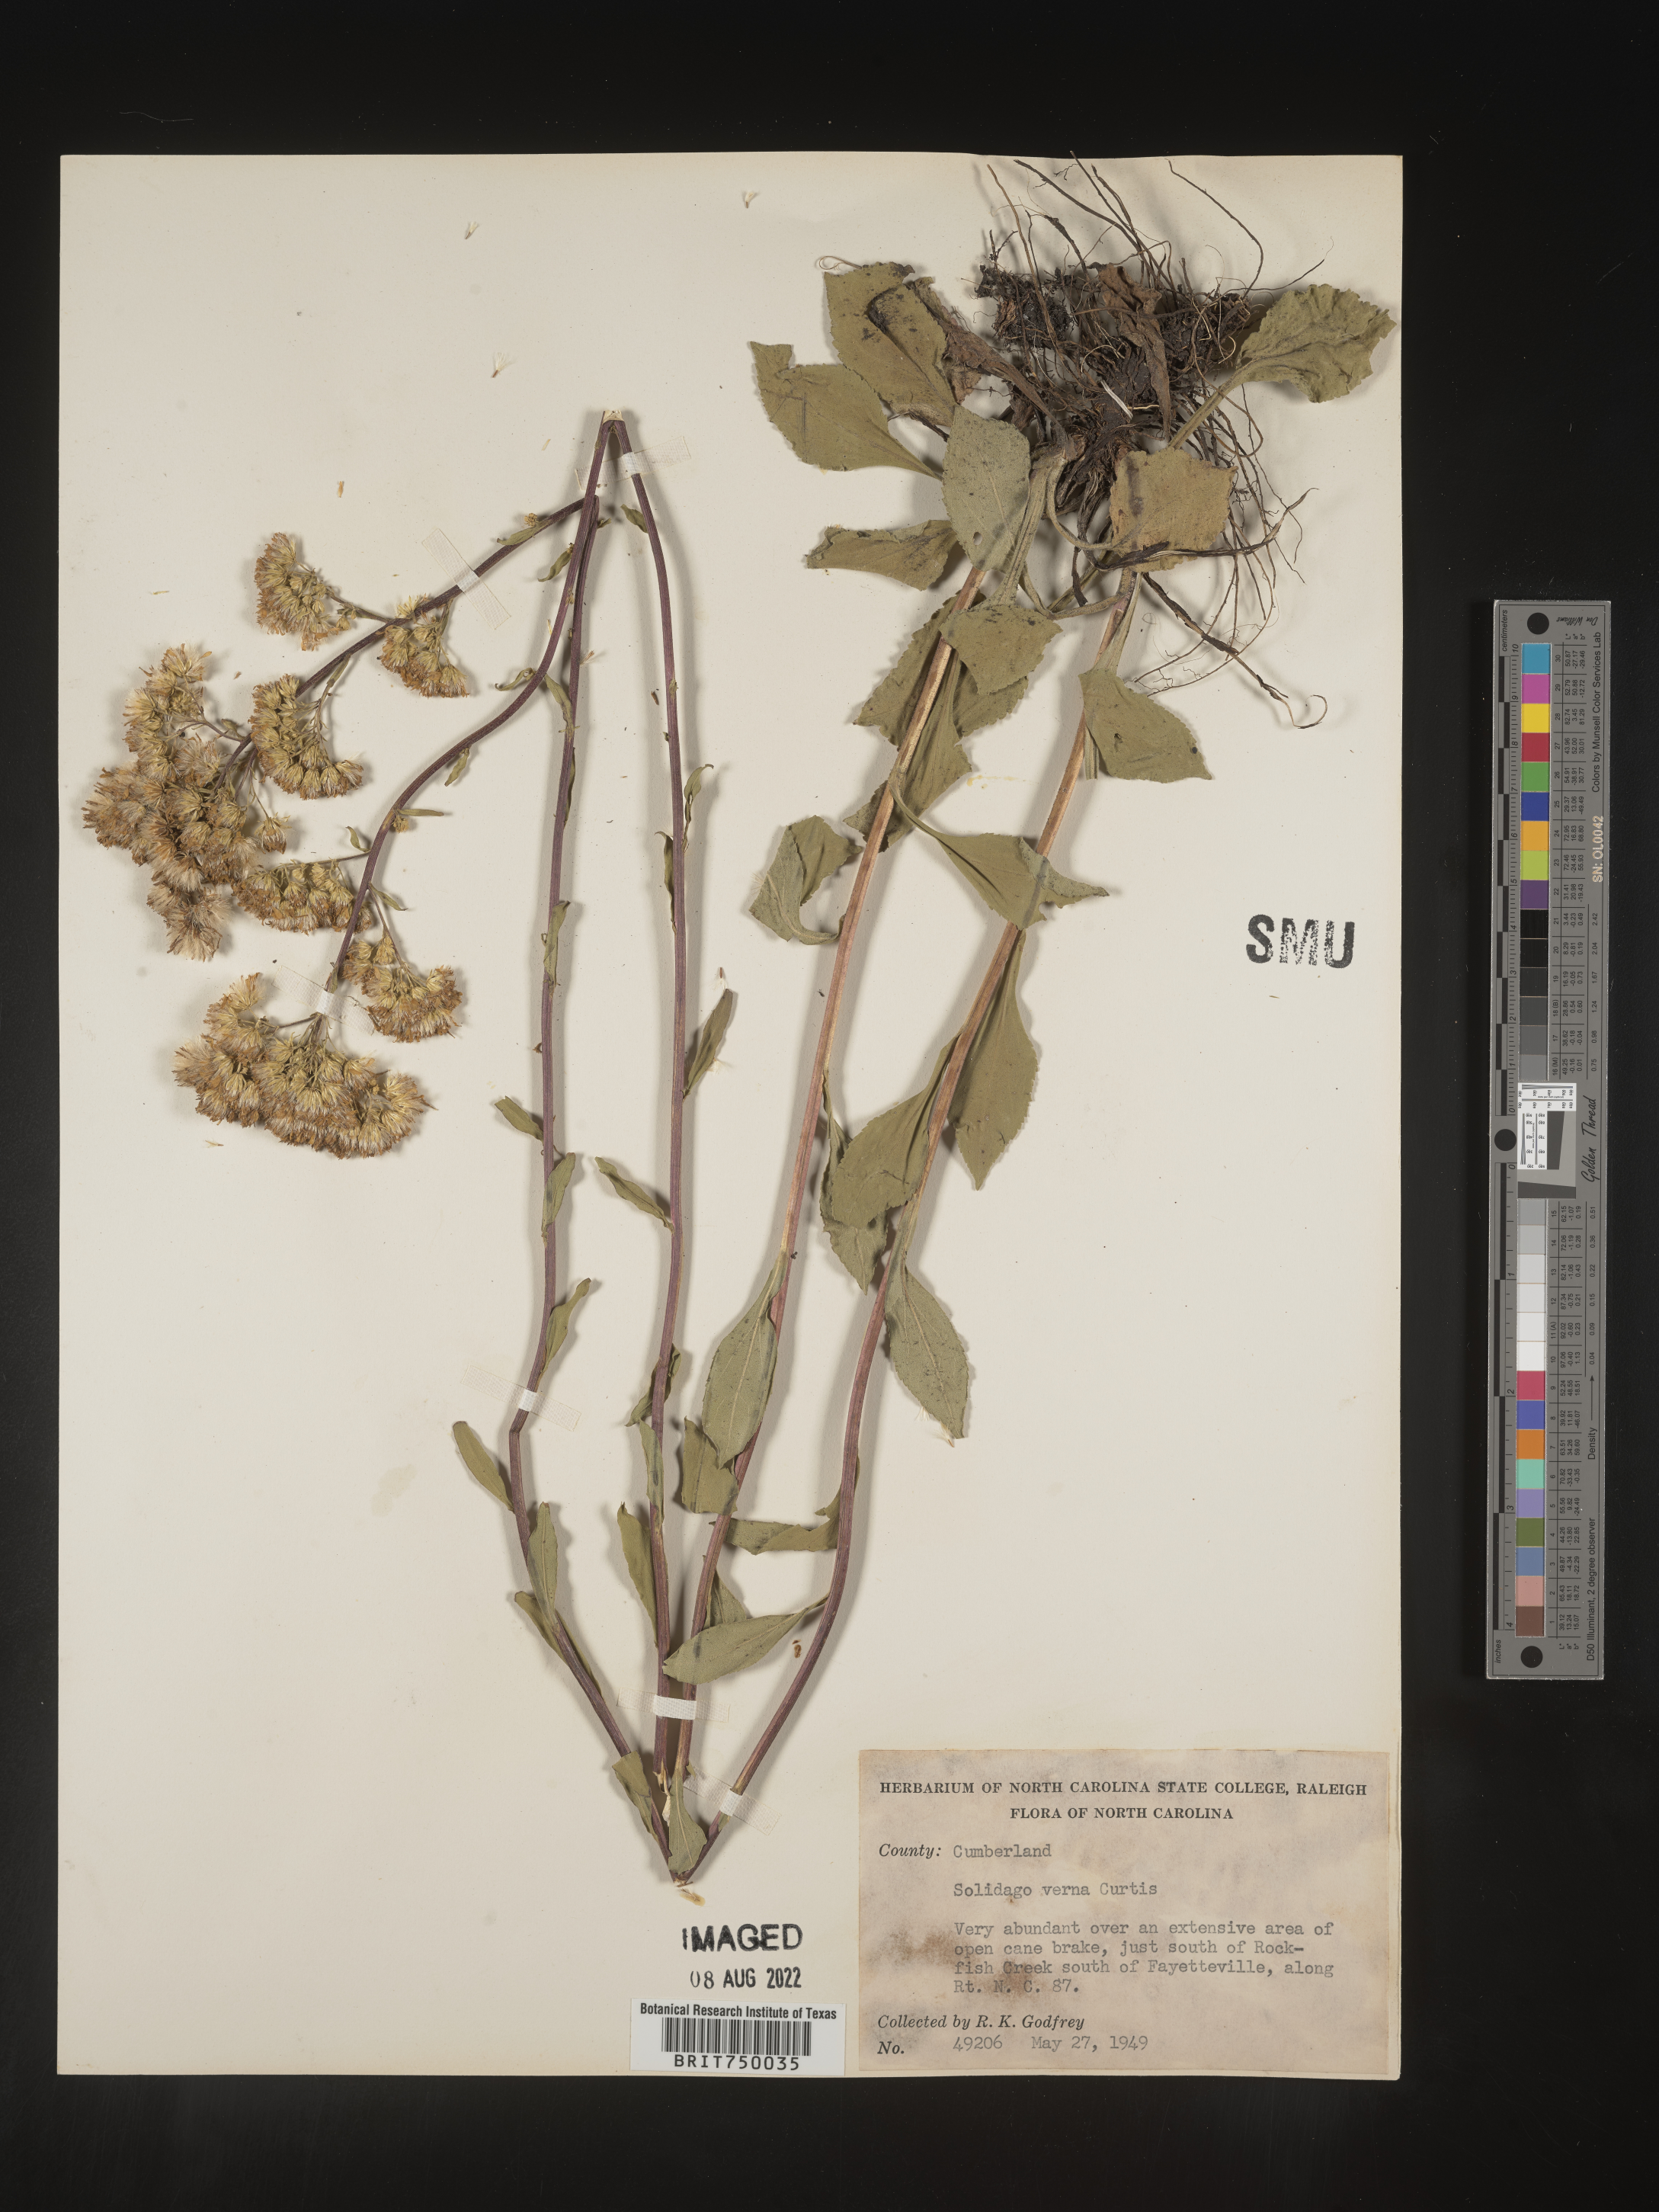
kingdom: Plantae
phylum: Tracheophyta
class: Magnoliopsida
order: Asterales
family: Asteraceae
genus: Solidago
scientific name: Solidago verna
